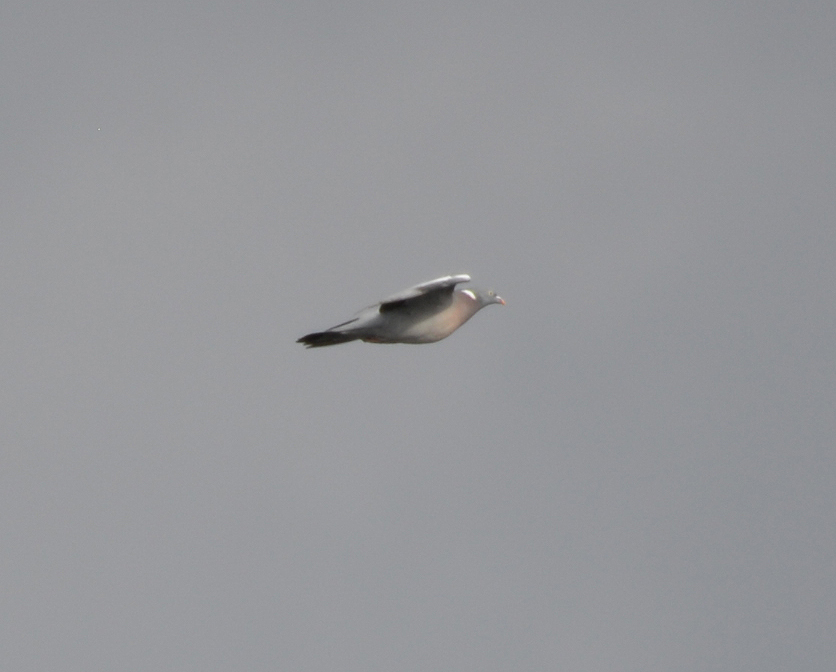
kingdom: Animalia
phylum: Chordata
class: Aves
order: Columbiformes
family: Columbidae
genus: Columba
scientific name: Columba palumbus
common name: Common wood pigeon
